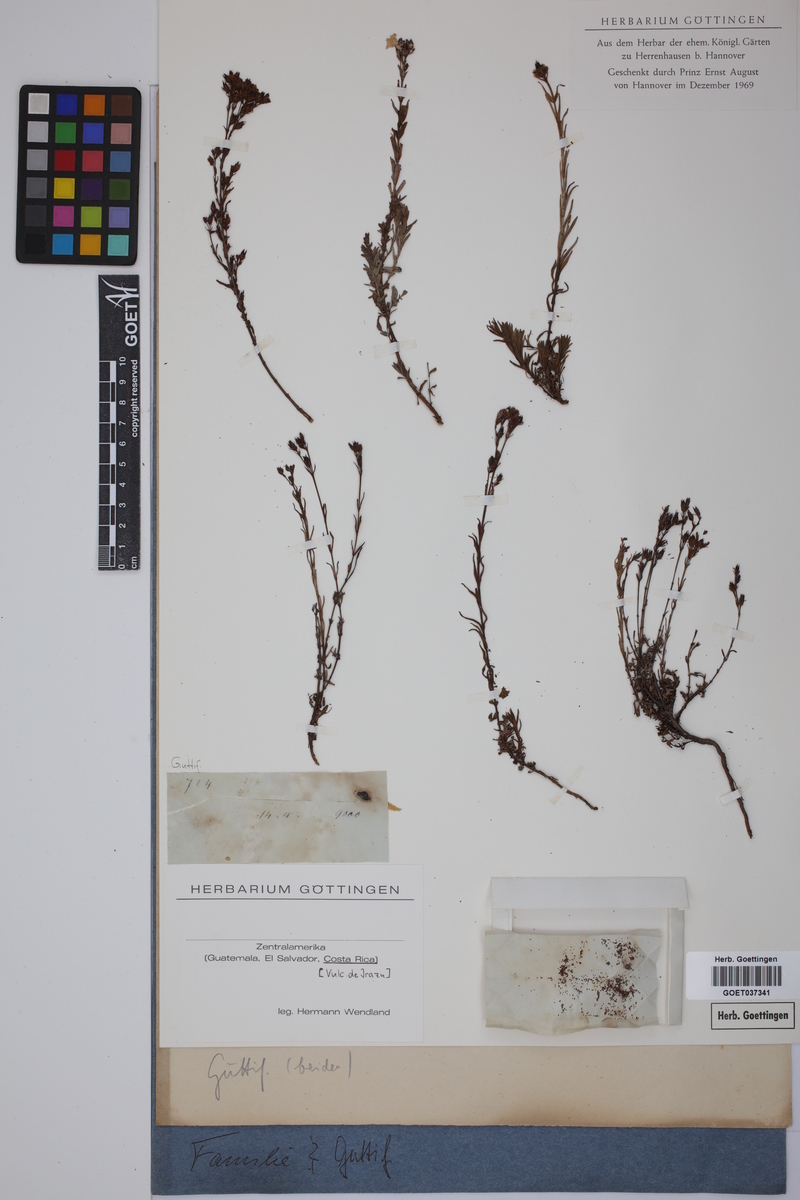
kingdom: Plantae
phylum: Tracheophyta
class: Magnoliopsida
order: Malpighiales
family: Hypericaceae
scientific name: Hypericaceae
